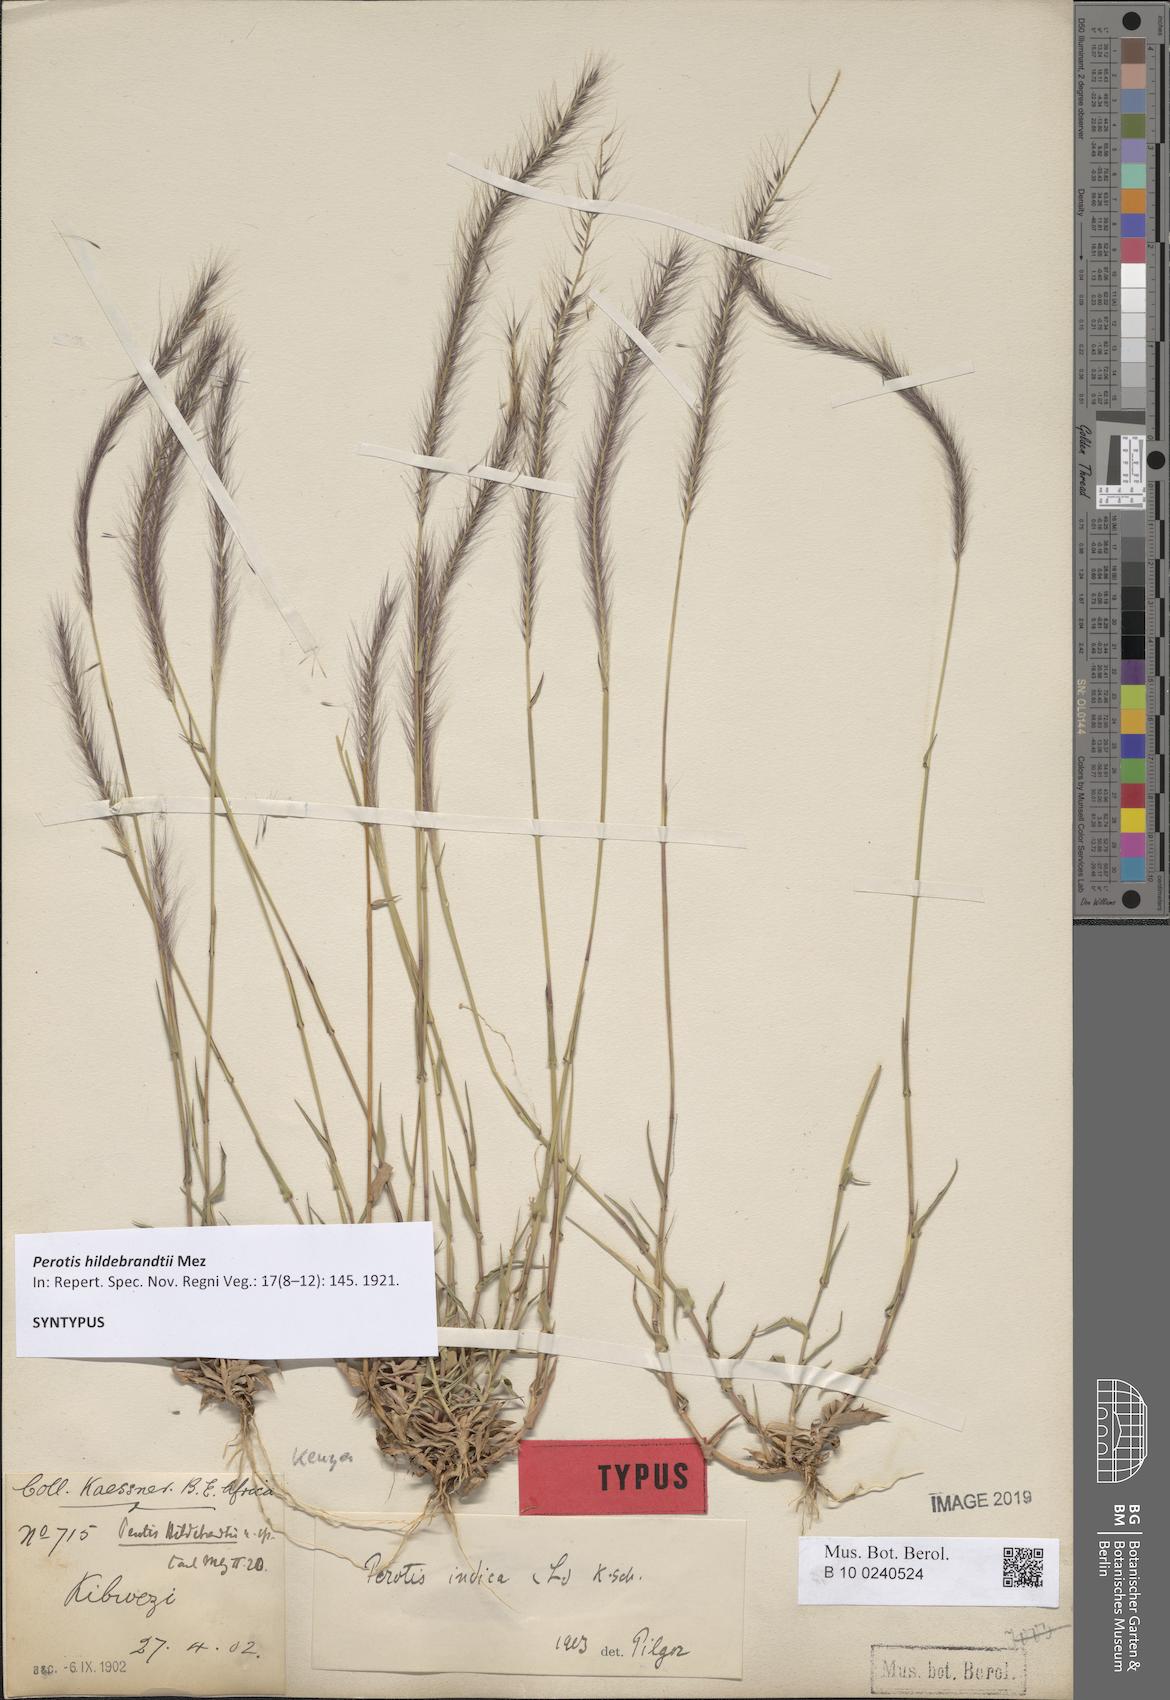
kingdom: Plantae
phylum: Tracheophyta
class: Liliopsida
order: Poales
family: Poaceae
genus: Perotis
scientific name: Perotis hildebrandtii
